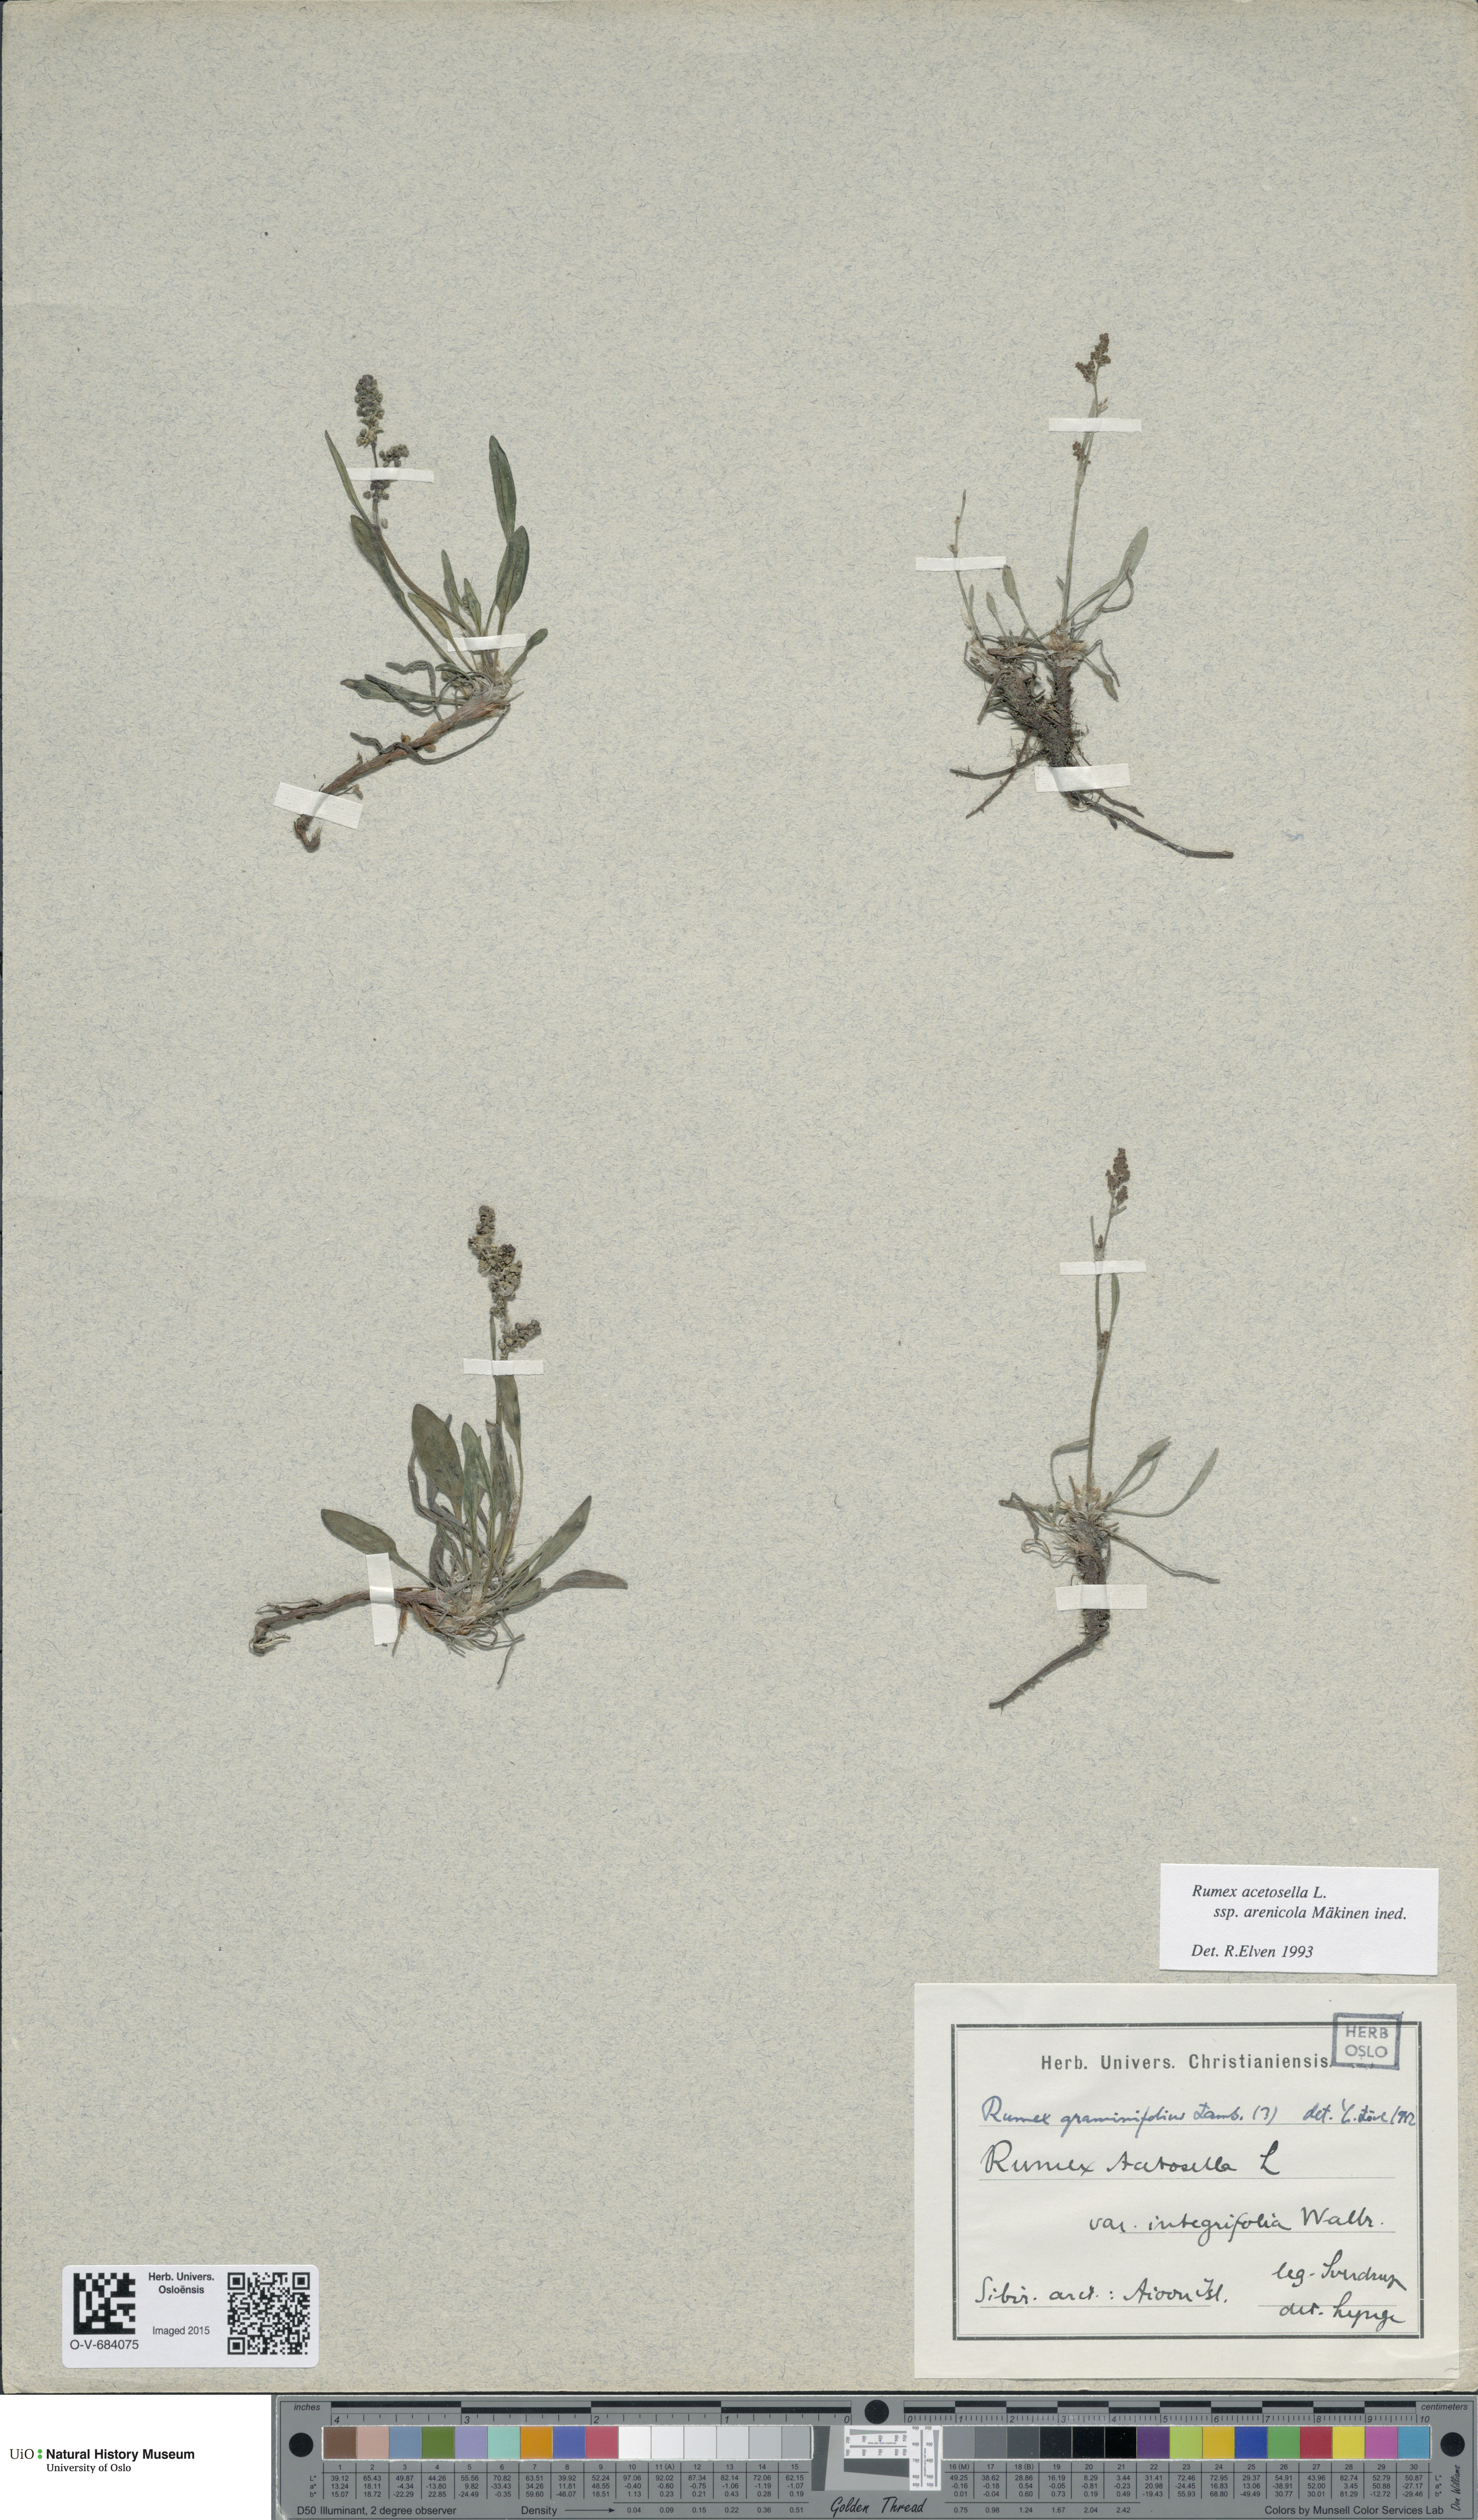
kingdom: Plantae
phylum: Tracheophyta
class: Magnoliopsida
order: Caryophyllales
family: Polygonaceae
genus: Rumex
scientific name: Rumex acetosella
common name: Common sheep sorrel
